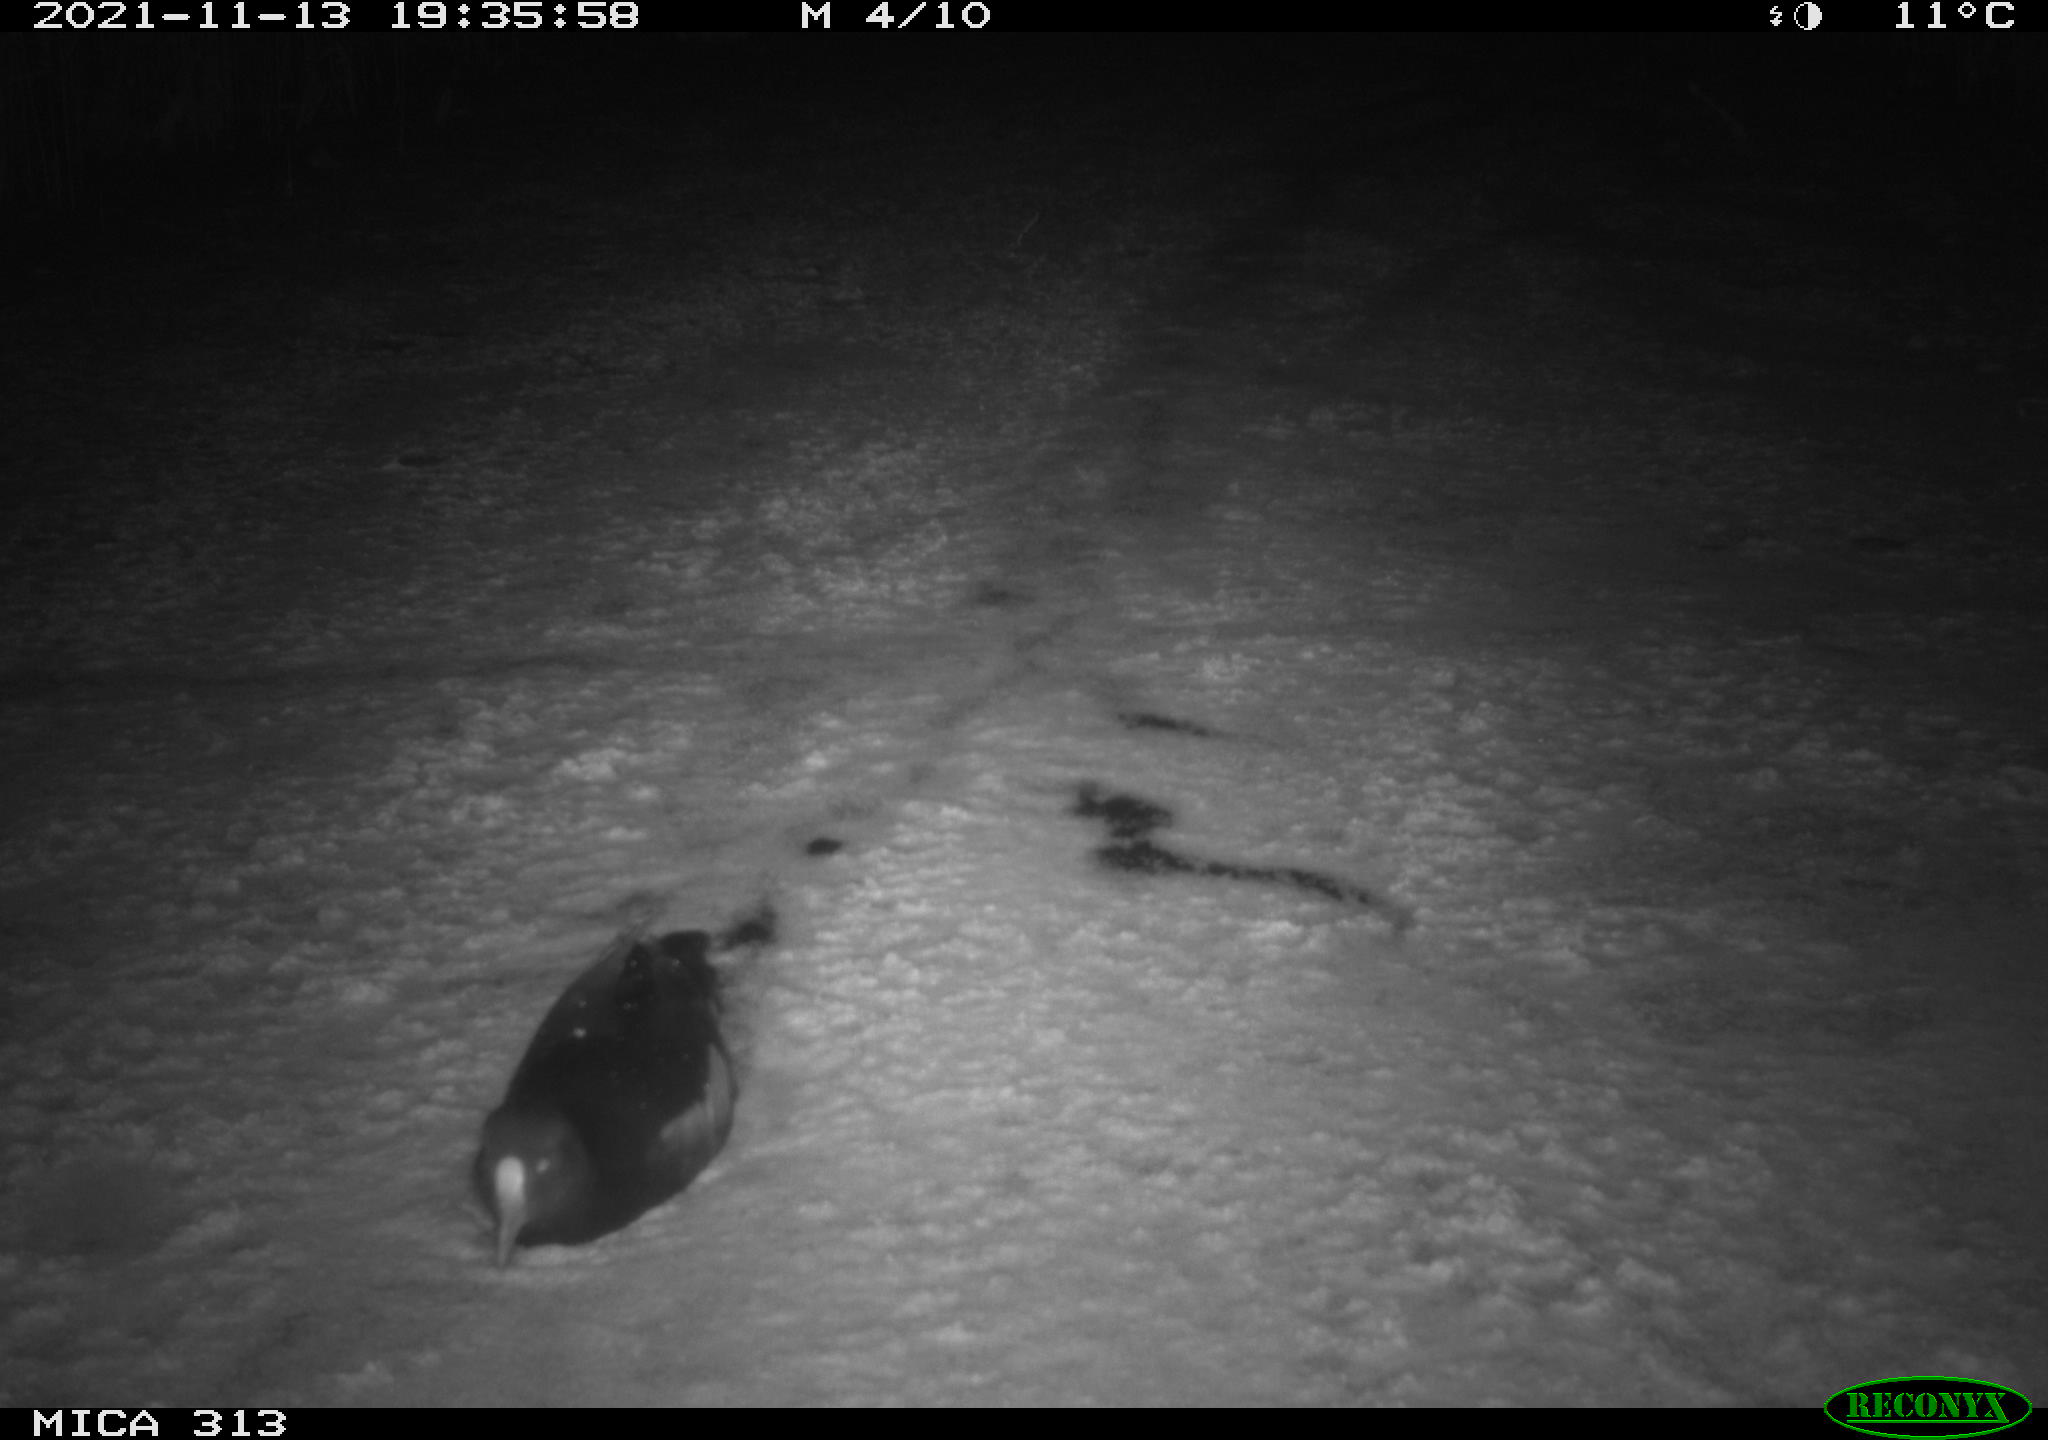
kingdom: Animalia
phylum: Chordata
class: Aves
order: Gruiformes
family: Rallidae
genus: Gallinula
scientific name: Gallinula chloropus
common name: Common moorhen
